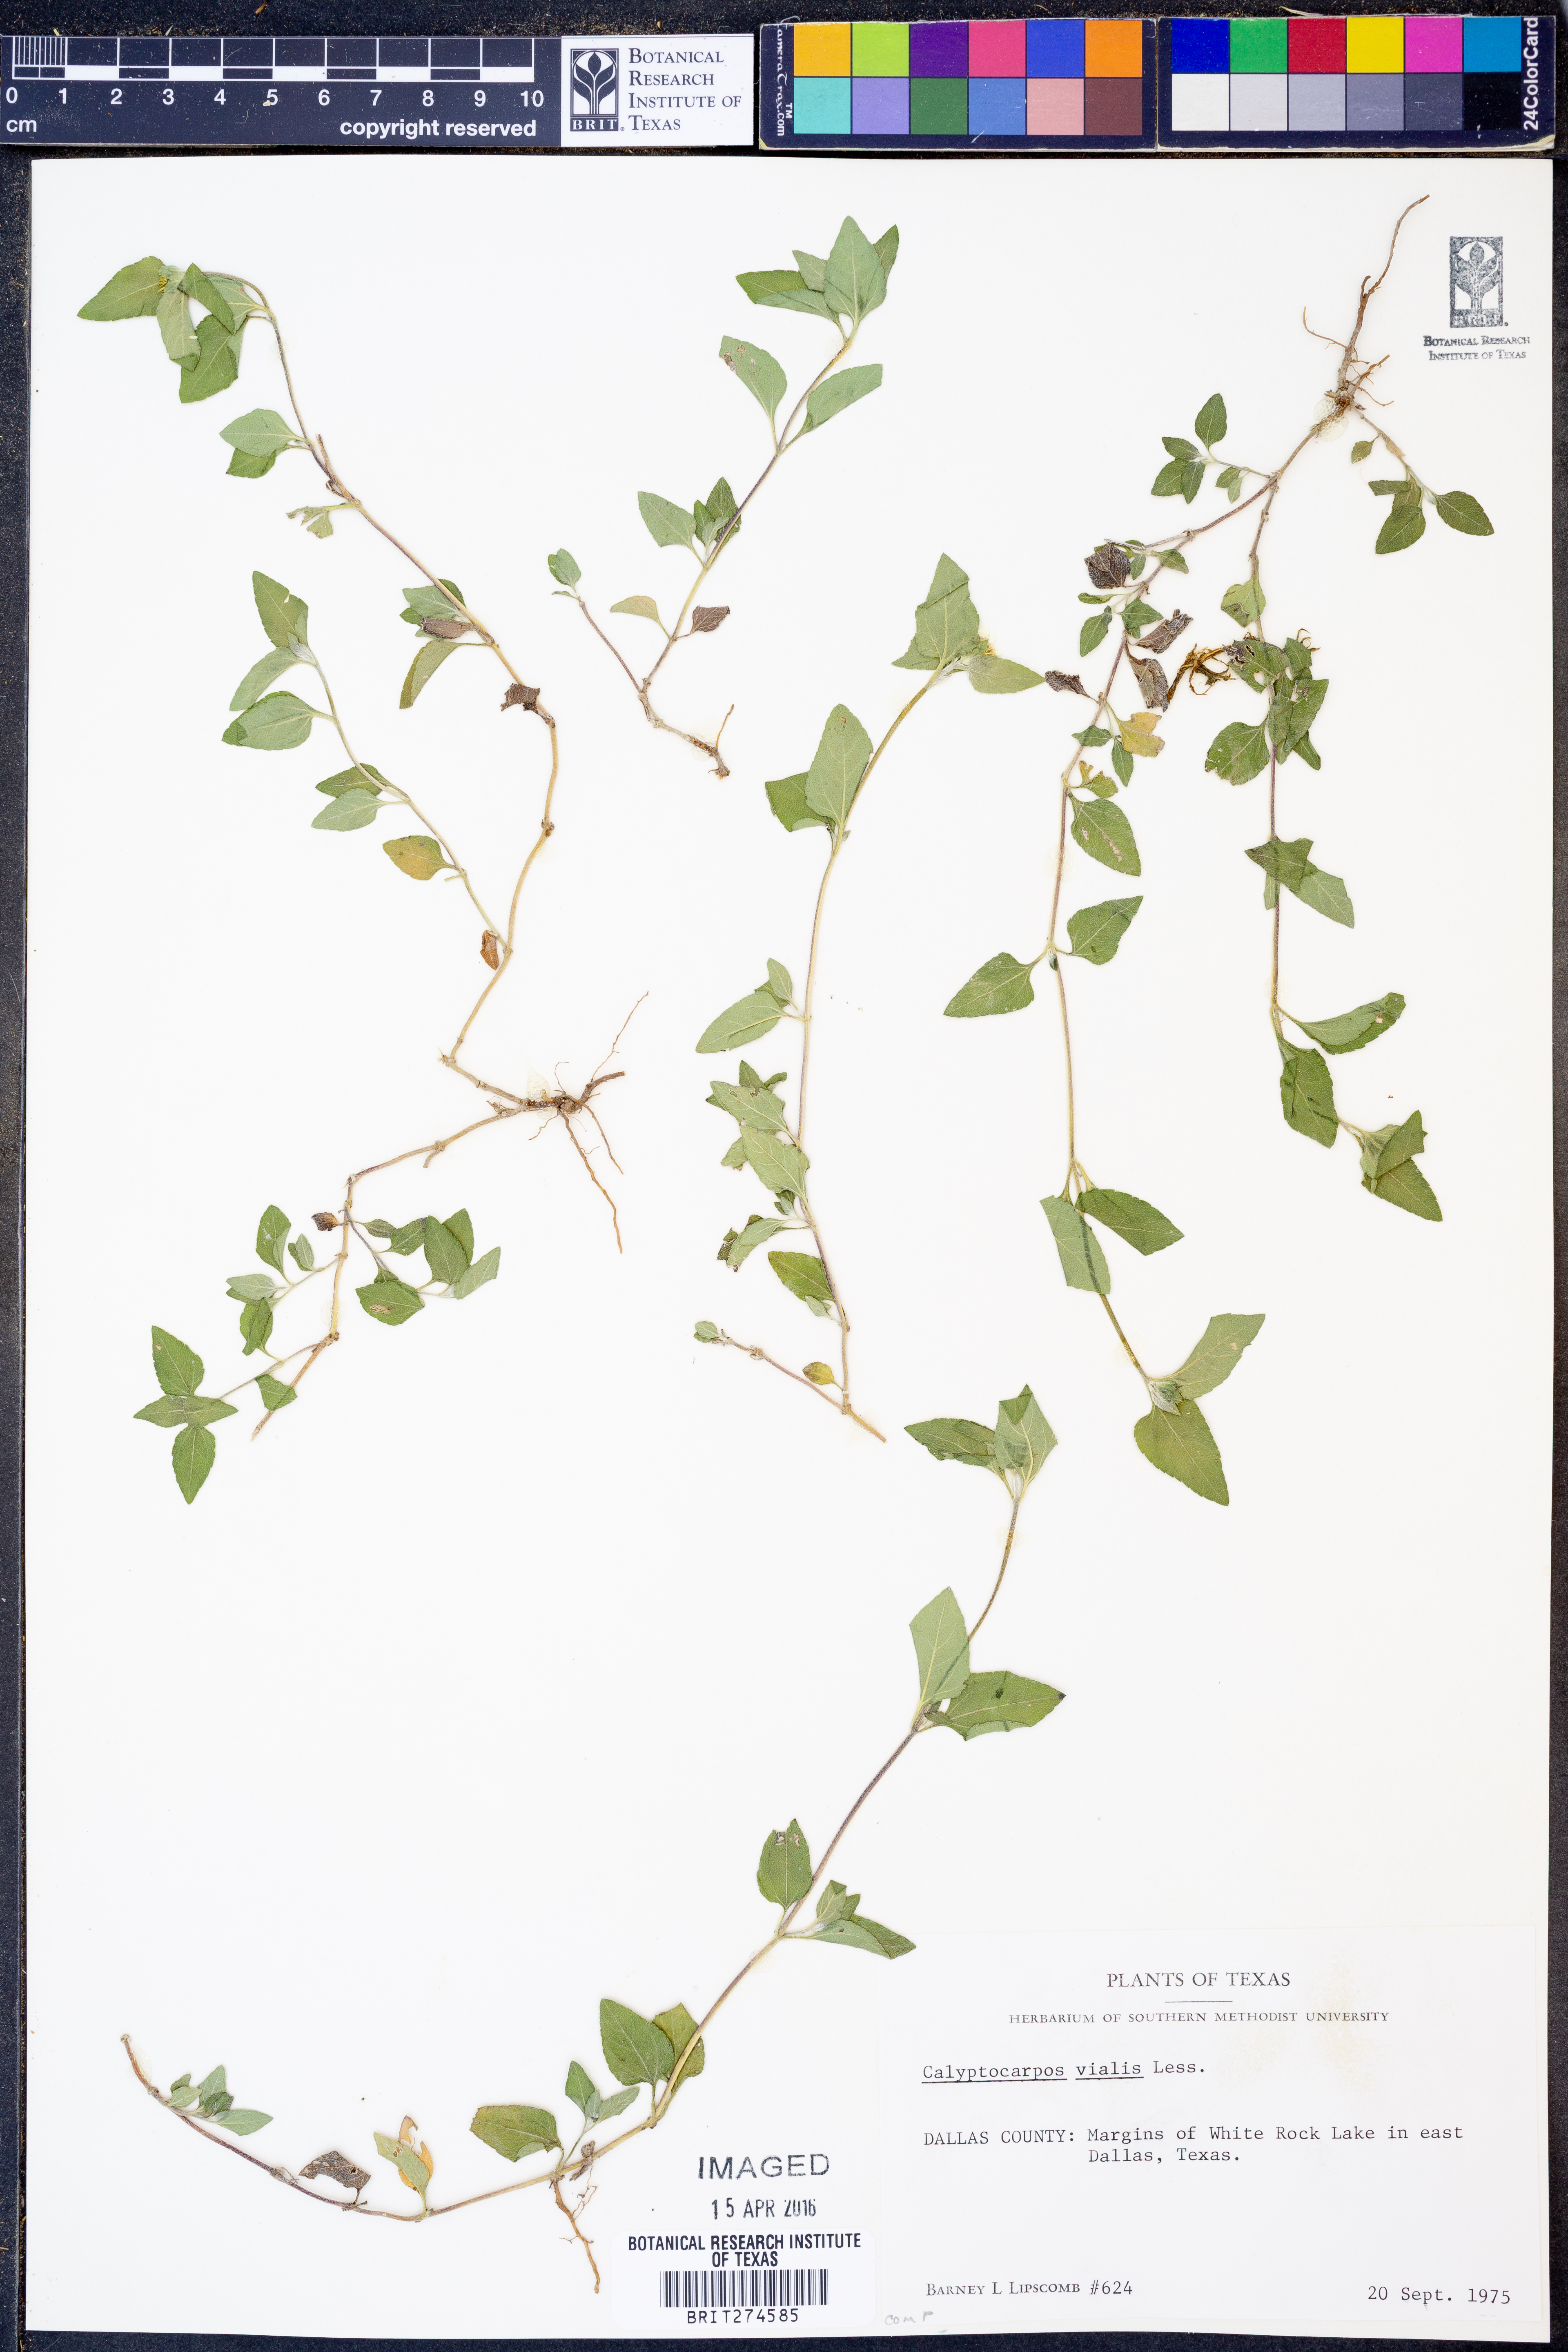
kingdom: Plantae
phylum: Tracheophyta
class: Magnoliopsida
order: Asterales
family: Asteraceae
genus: Calyptocarpus
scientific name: Calyptocarpus vialis
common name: Straggler daisy
